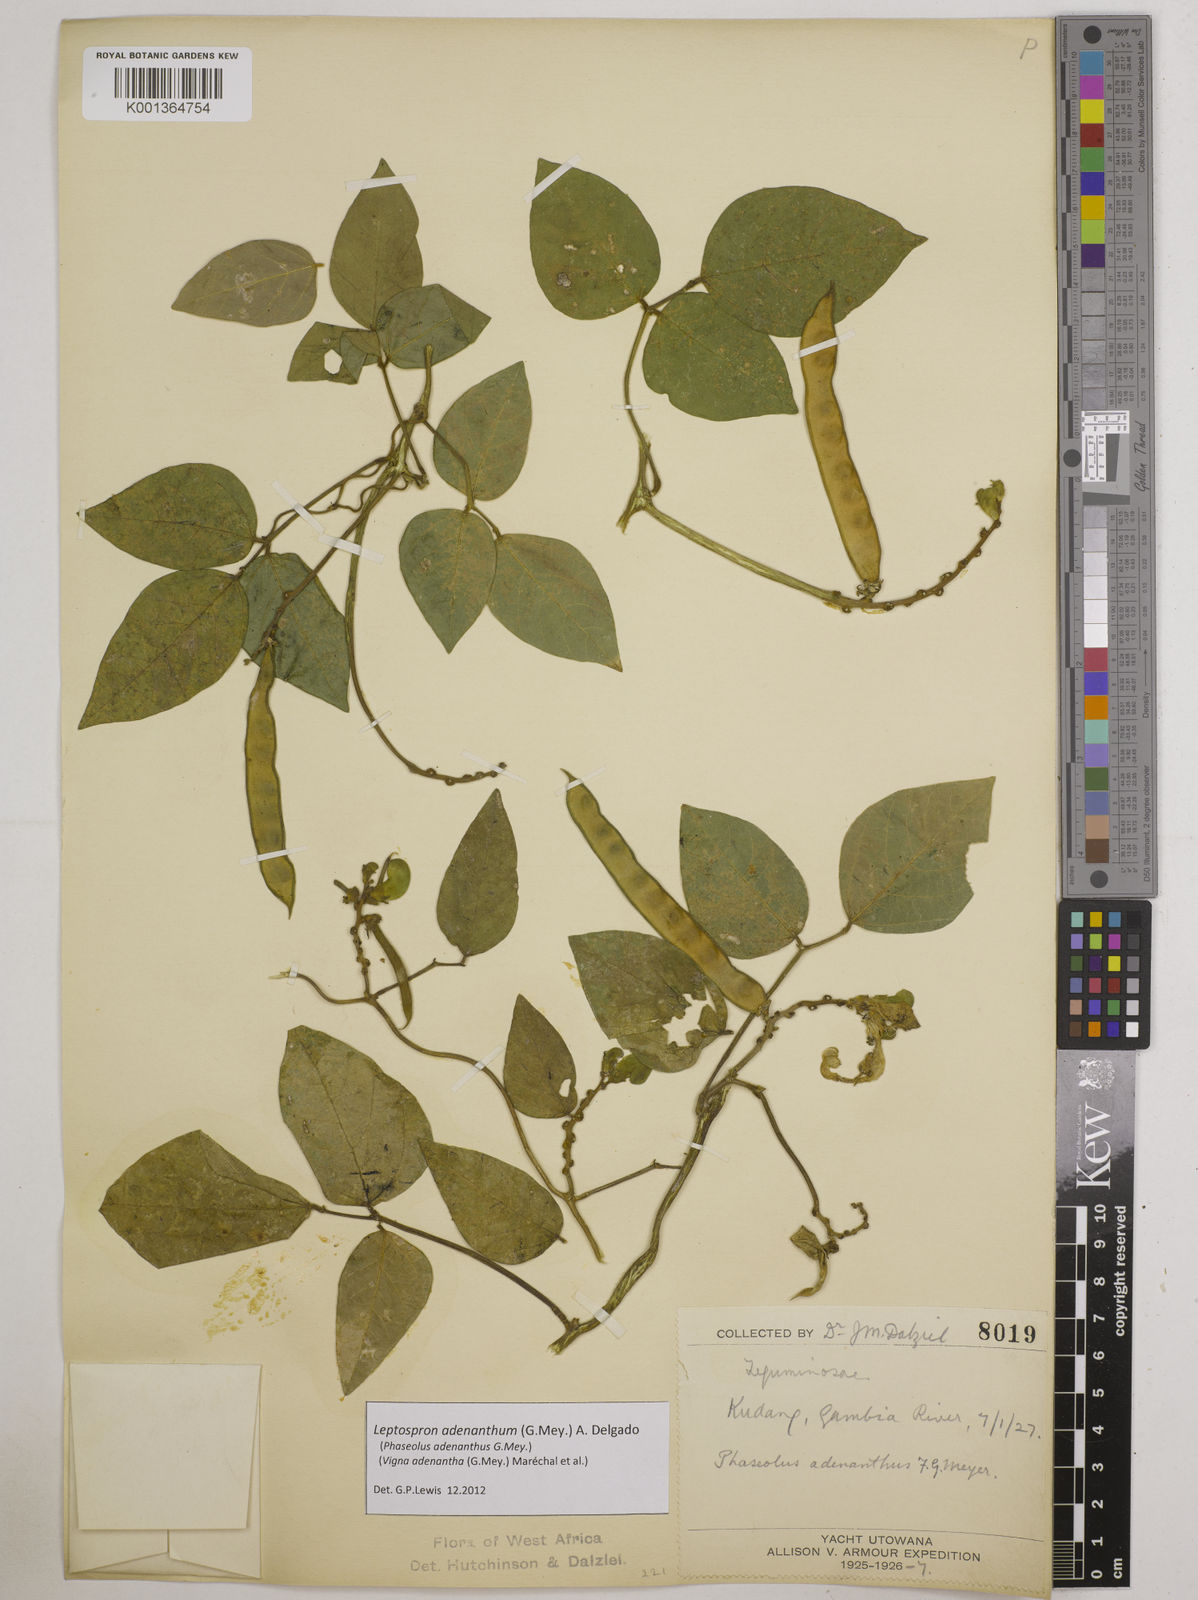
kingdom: Plantae
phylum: Tracheophyta
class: Magnoliopsida
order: Fabales
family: Fabaceae
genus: Leptospron
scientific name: Leptospron adenanthum
